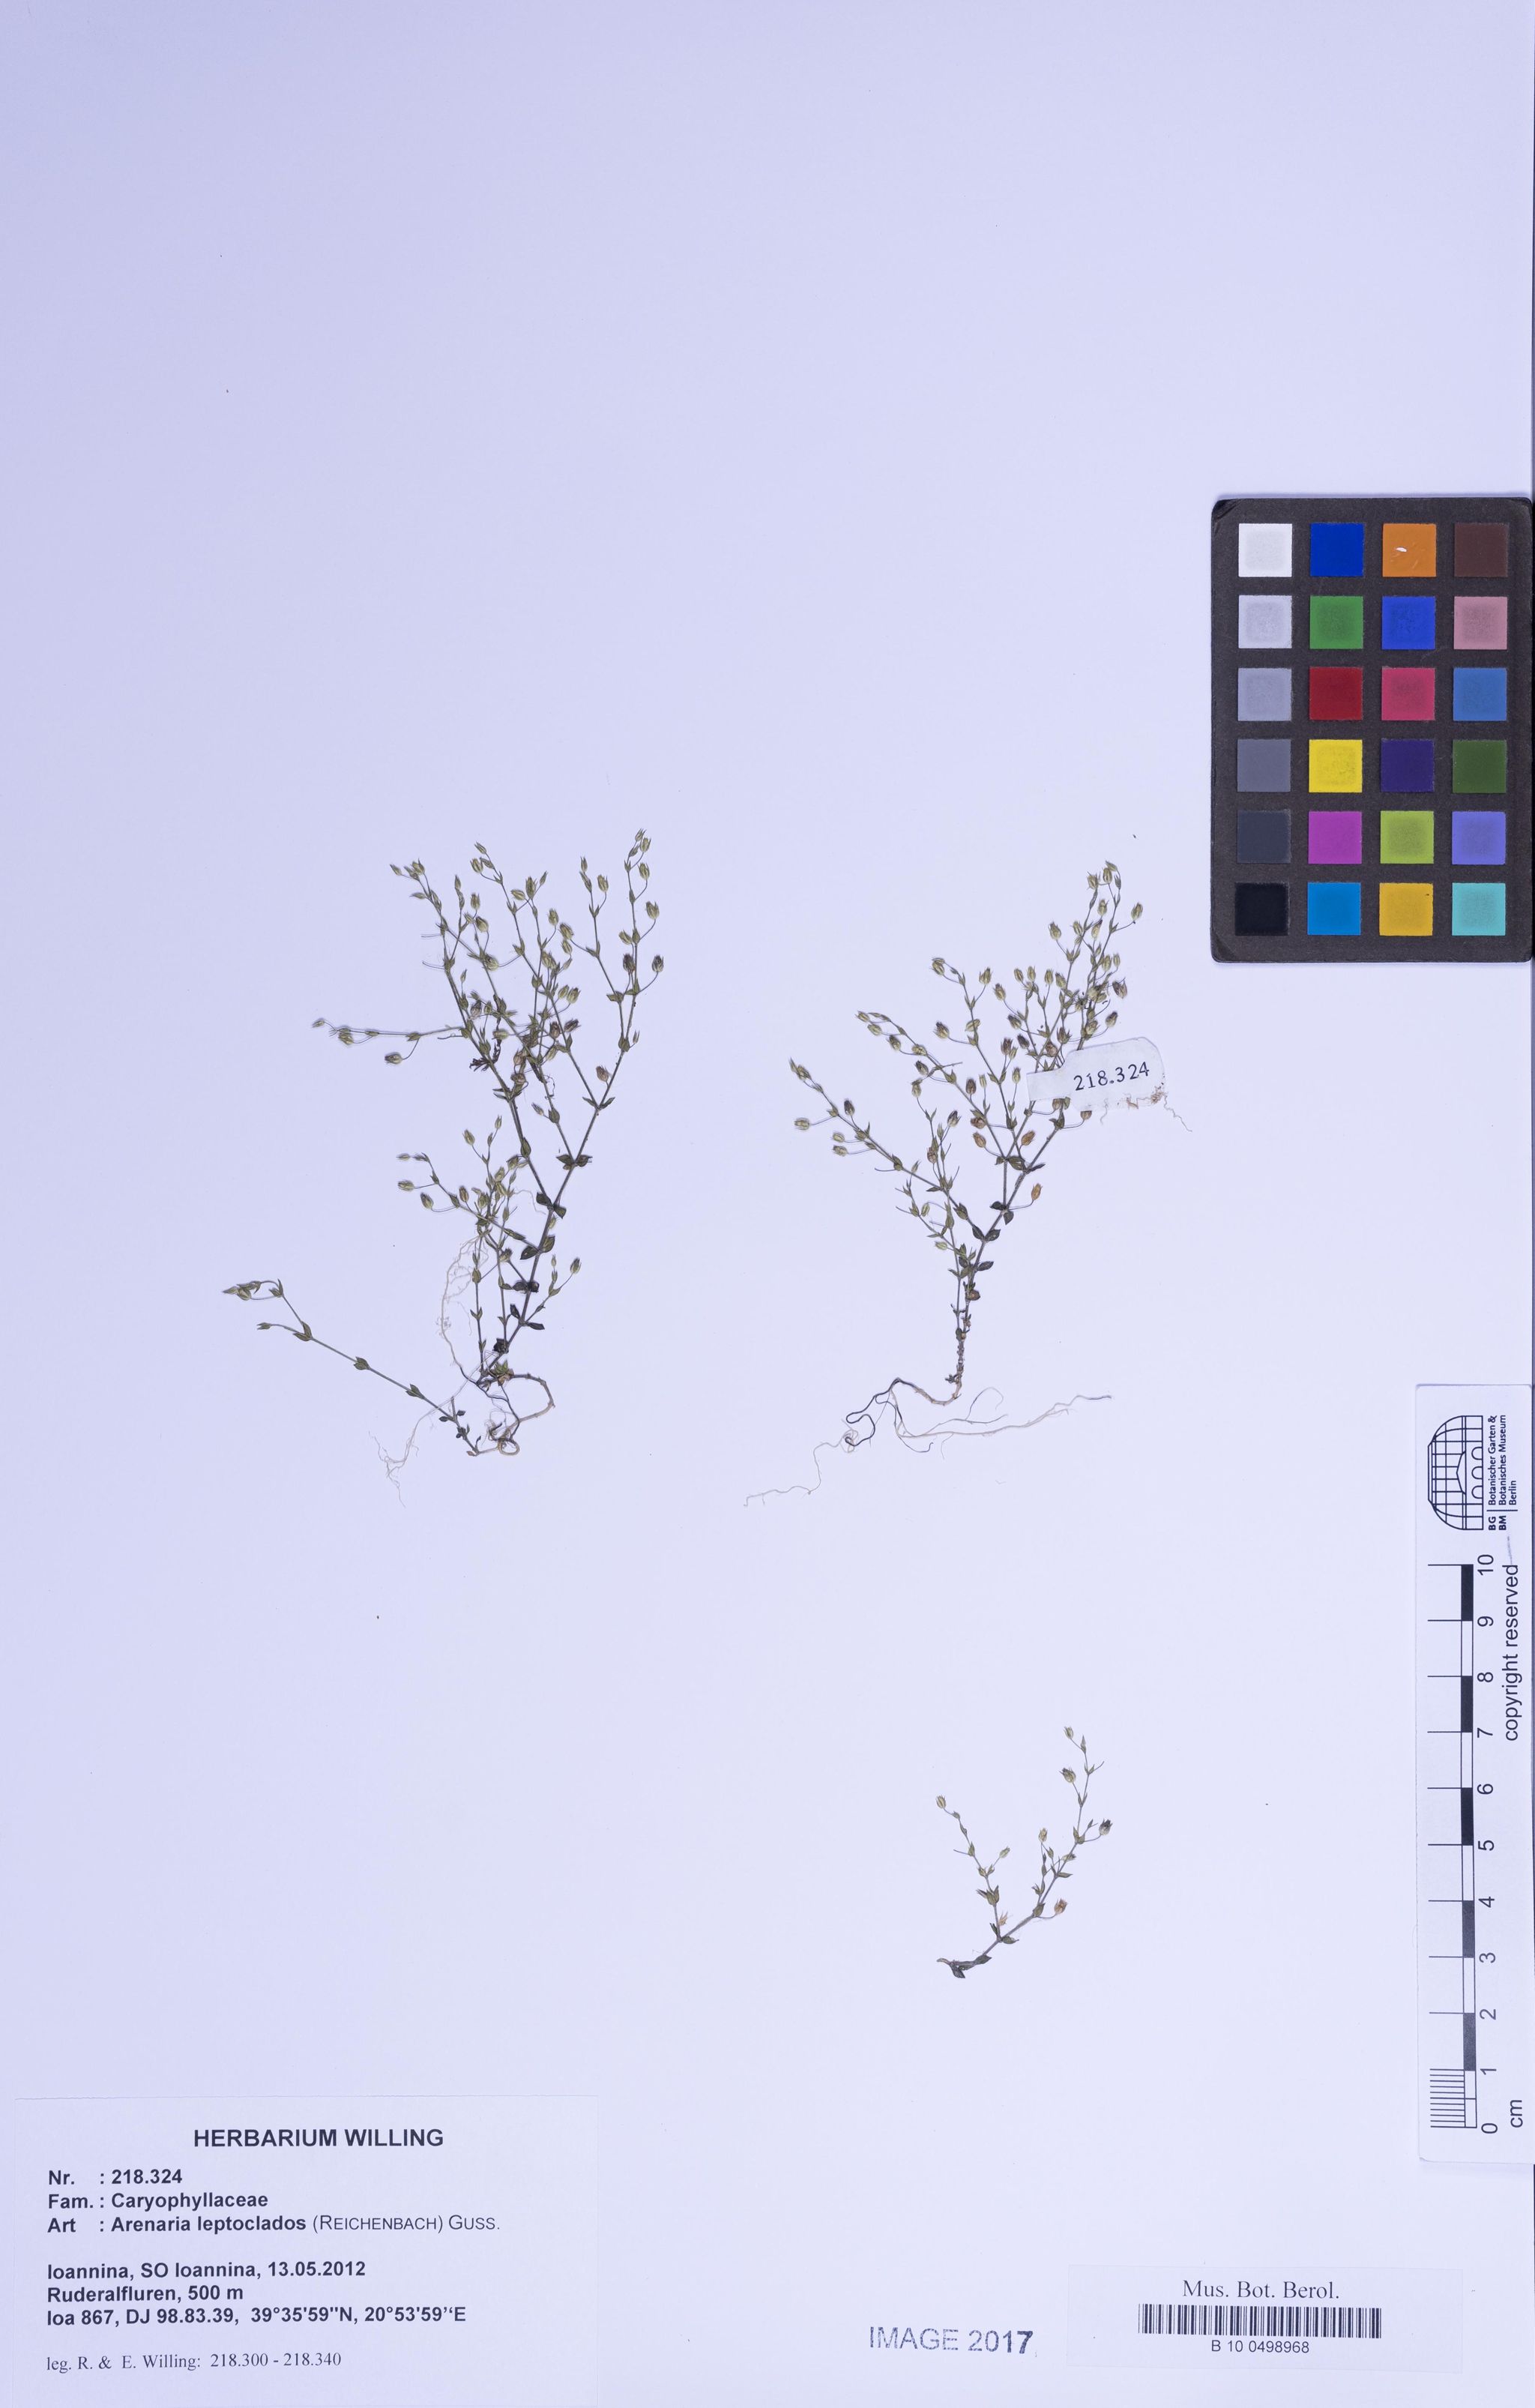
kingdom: Plantae
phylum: Tracheophyta
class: Magnoliopsida
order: Caryophyllales
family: Caryophyllaceae
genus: Arenaria
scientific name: Arenaria leptoclados
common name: Thyme-leaved sandwort
